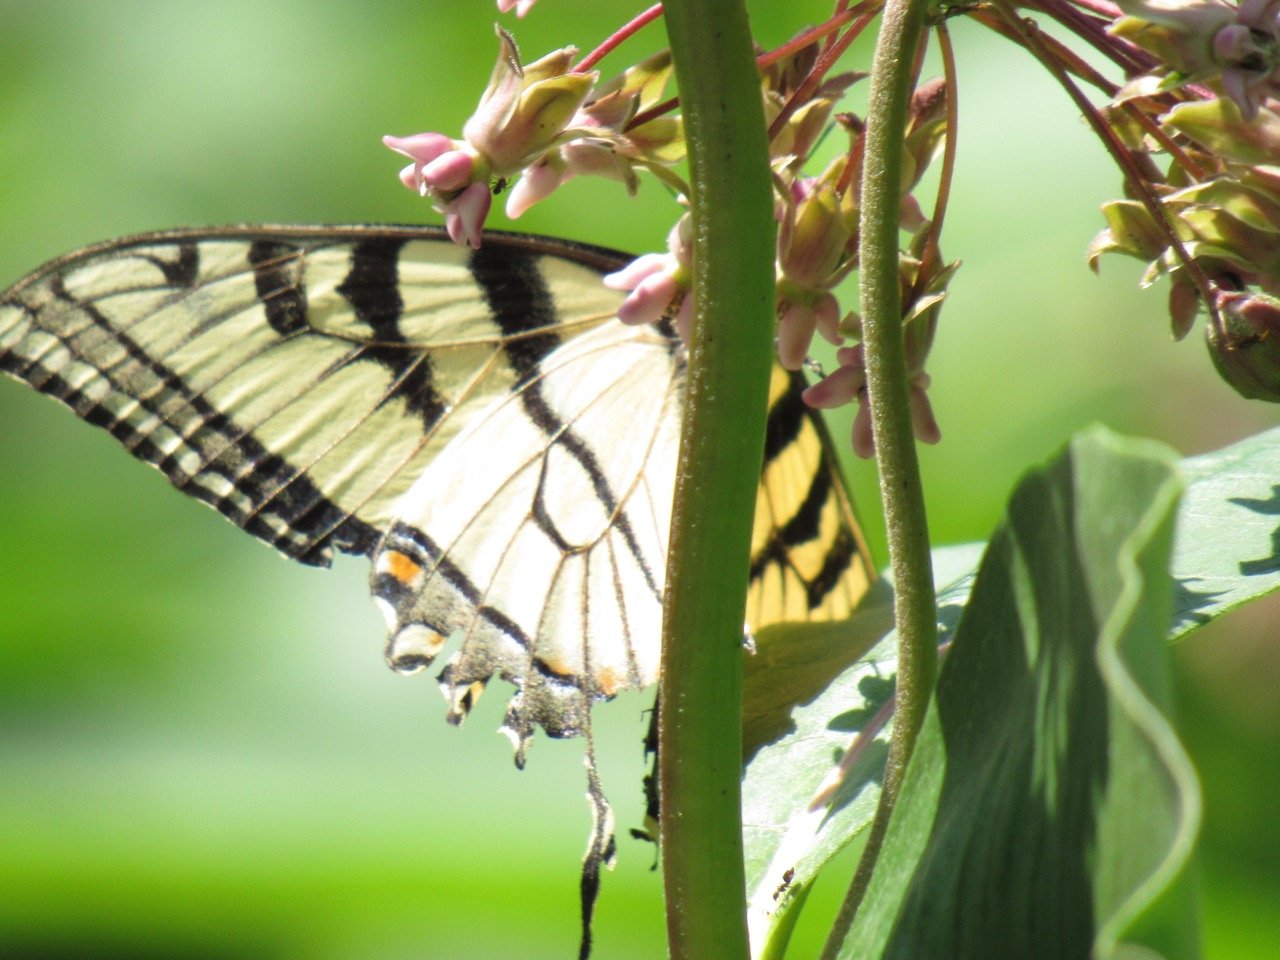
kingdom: Animalia
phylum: Arthropoda
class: Insecta
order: Lepidoptera
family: Papilionidae
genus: Pterourus
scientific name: Pterourus
